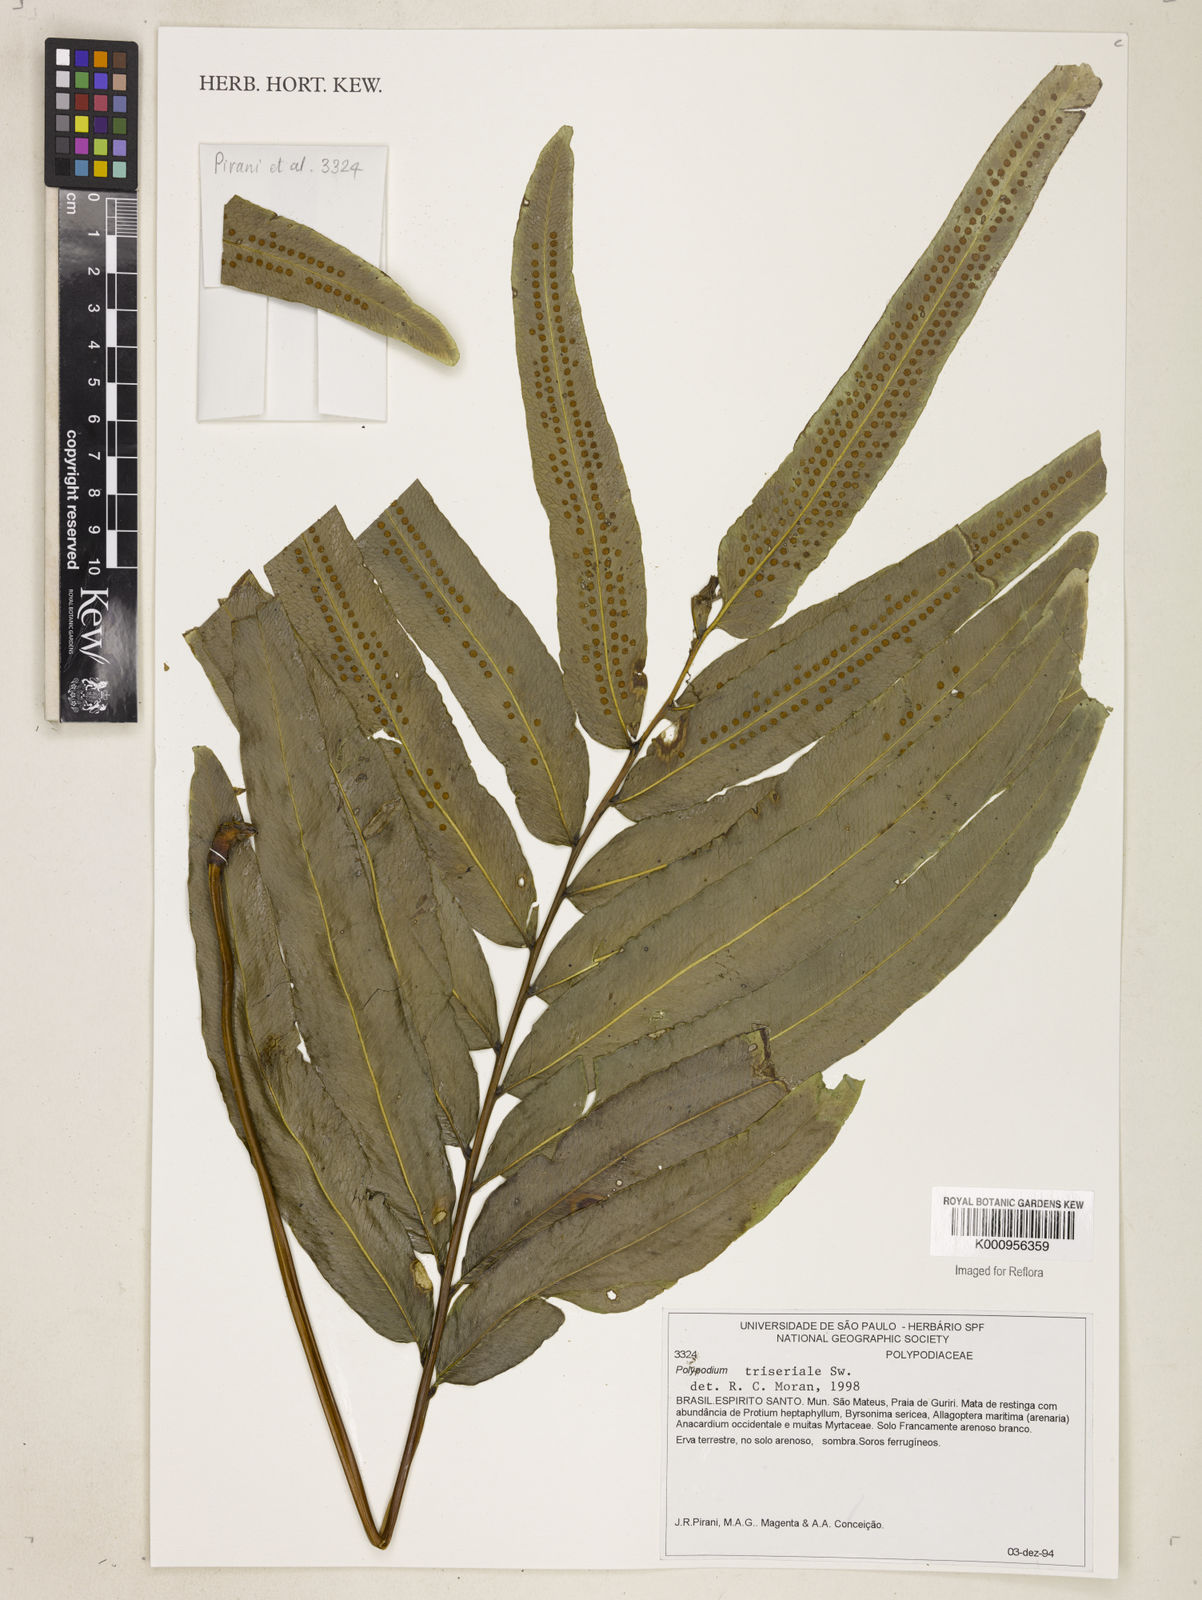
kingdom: Plantae
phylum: Tracheophyta
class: Polypodiopsida
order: Polypodiales
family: Polypodiaceae
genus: Serpocaulon
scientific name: Serpocaulon triseriale
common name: Angle-vein fern
